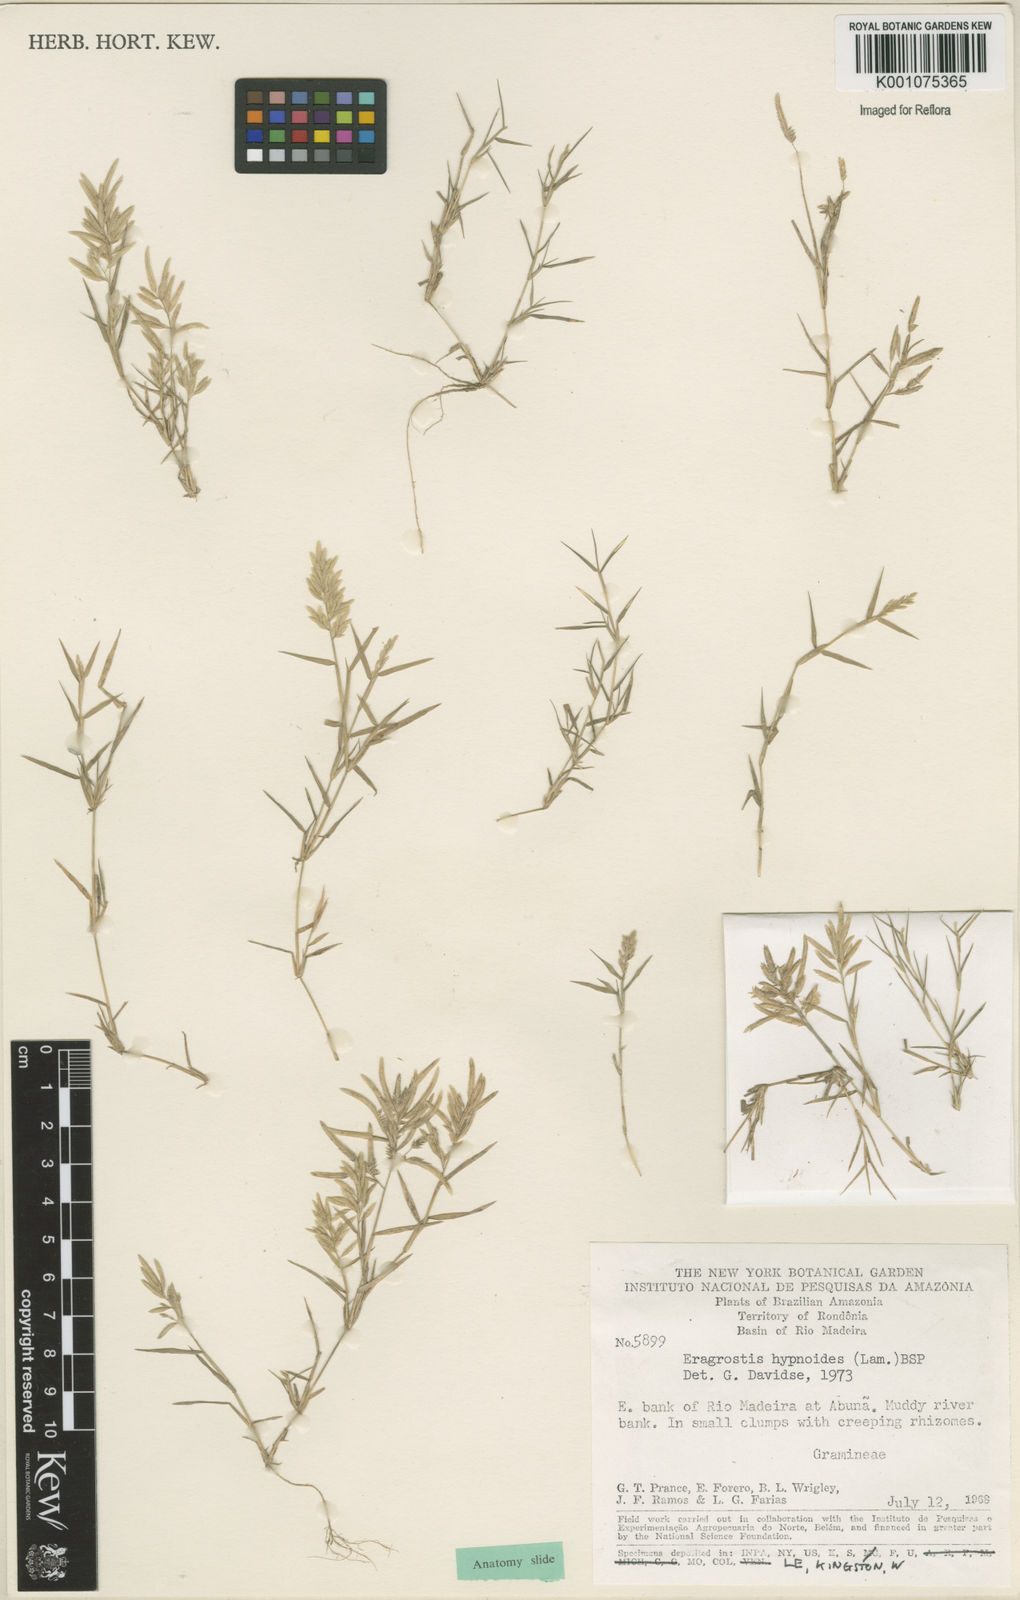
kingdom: Plantae
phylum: Tracheophyta
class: Liliopsida
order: Poales
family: Poaceae
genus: Eragrostis
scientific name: Eragrostis
